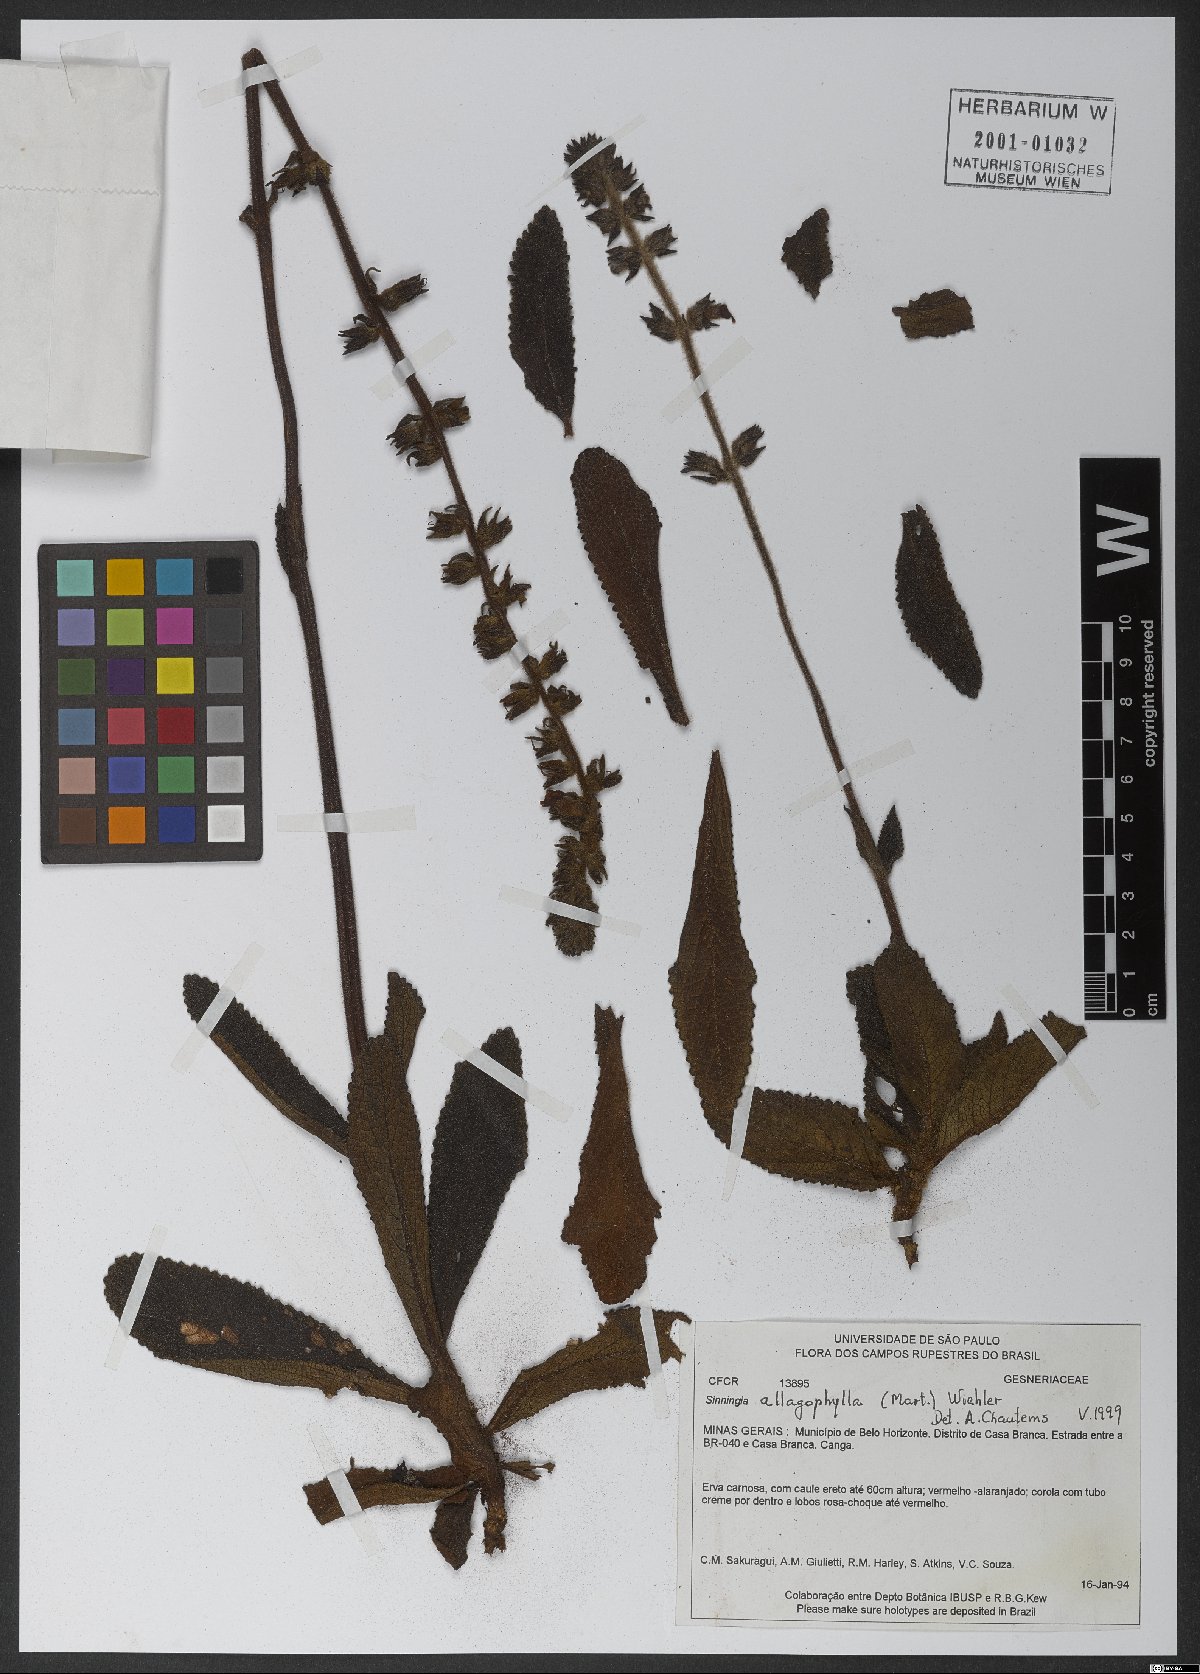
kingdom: Plantae
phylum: Tracheophyta
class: Magnoliopsida
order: Lamiales
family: Gesneriaceae
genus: Sinningia
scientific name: Sinningia allagophylla
